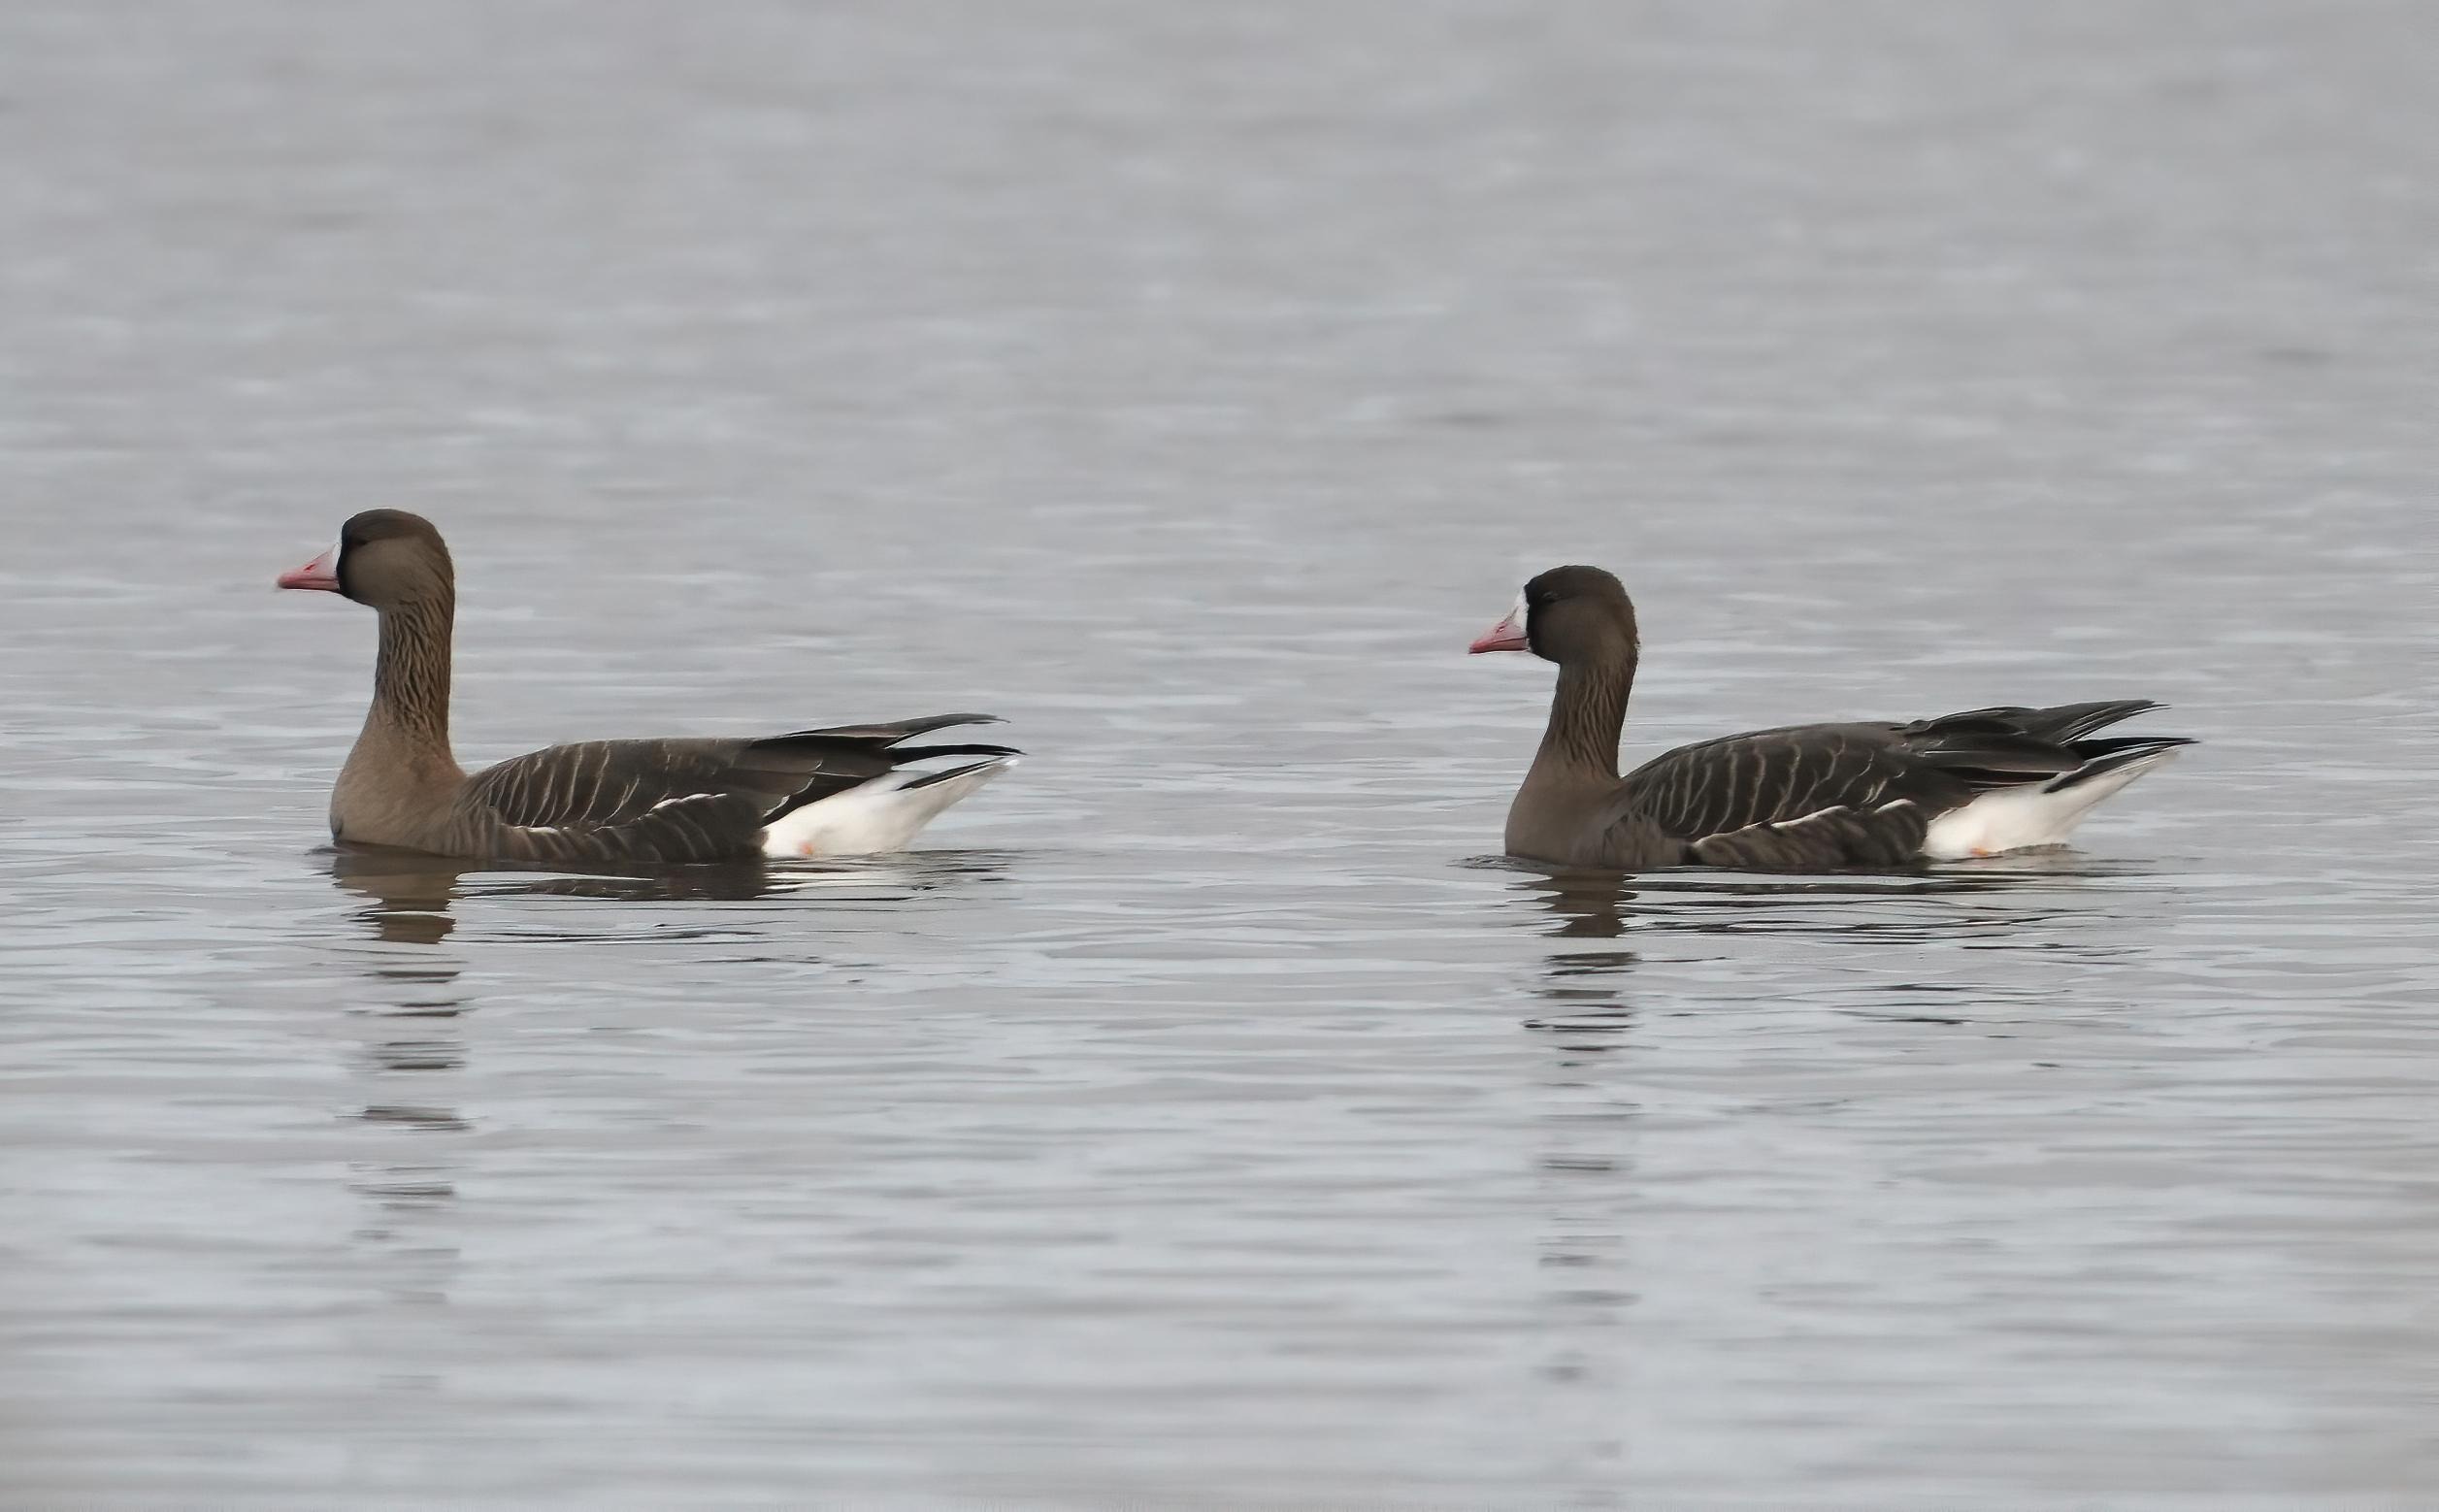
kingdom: Animalia
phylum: Chordata
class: Aves
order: Anseriformes
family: Anatidae
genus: Anser
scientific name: Anser albifrons
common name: Blisgås
